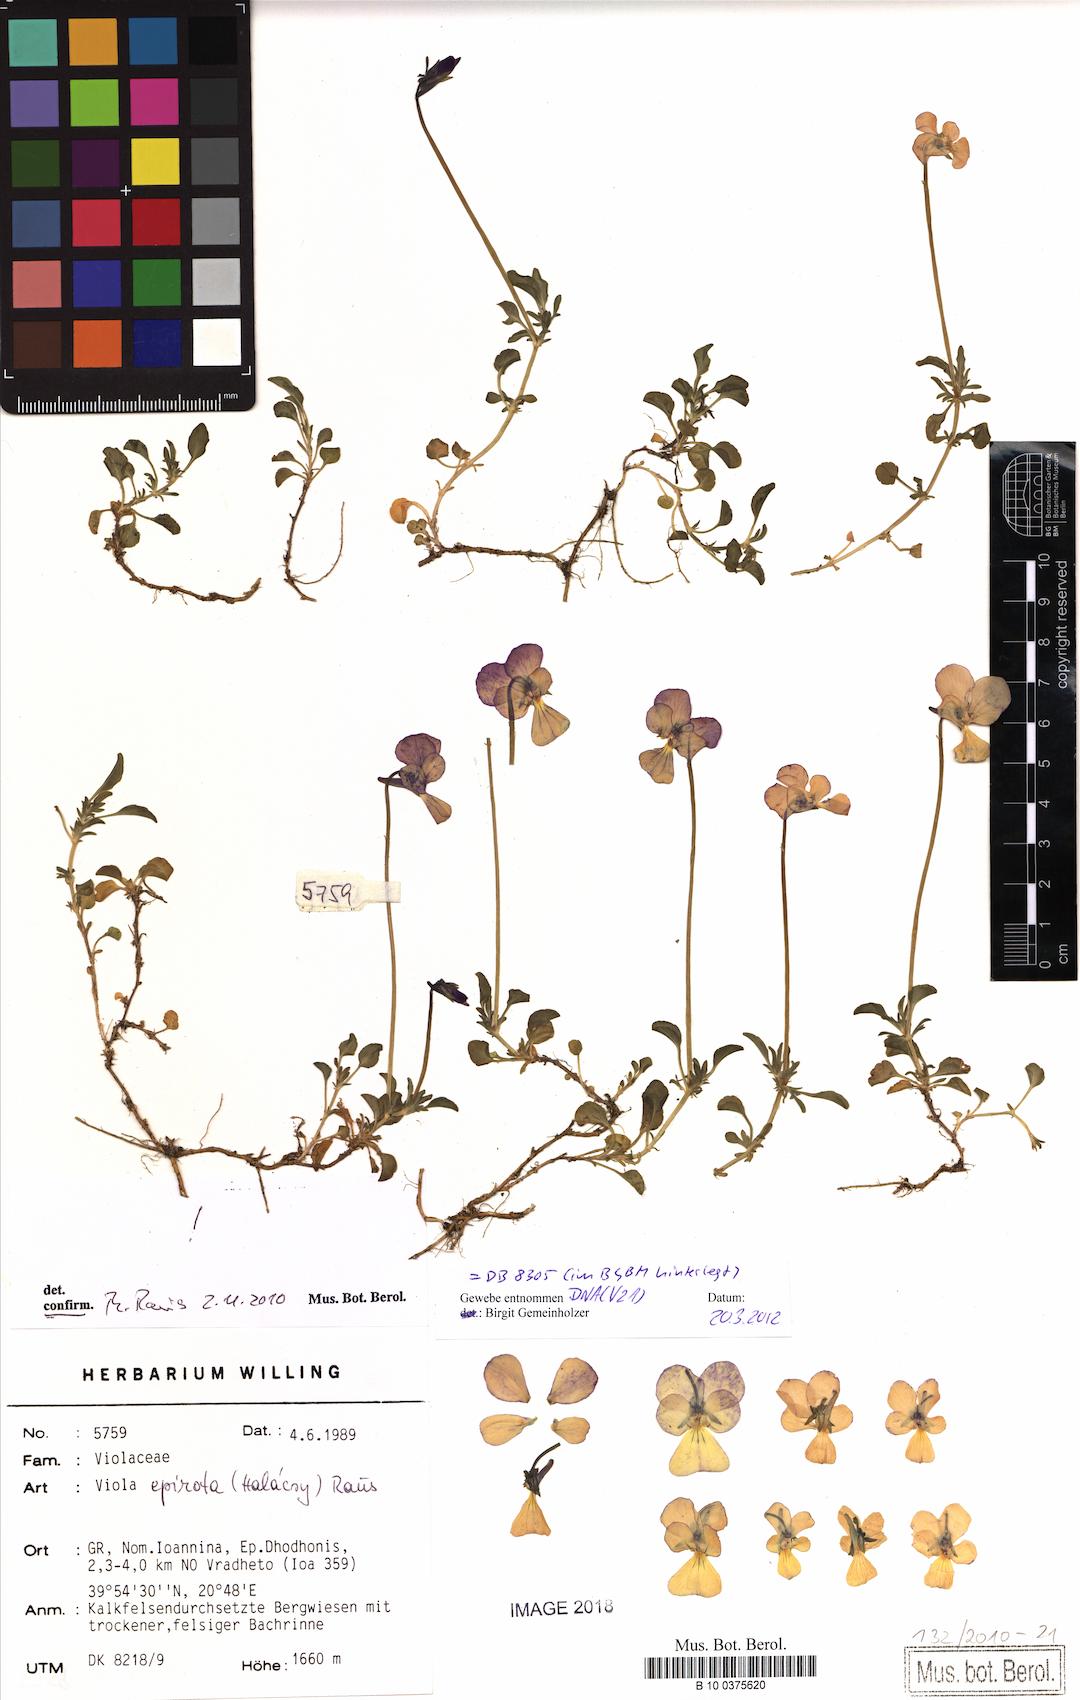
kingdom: Plantae
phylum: Tracheophyta
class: Magnoliopsida
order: Malpighiales
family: Violaceae
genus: Viola
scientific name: Viola epirota
